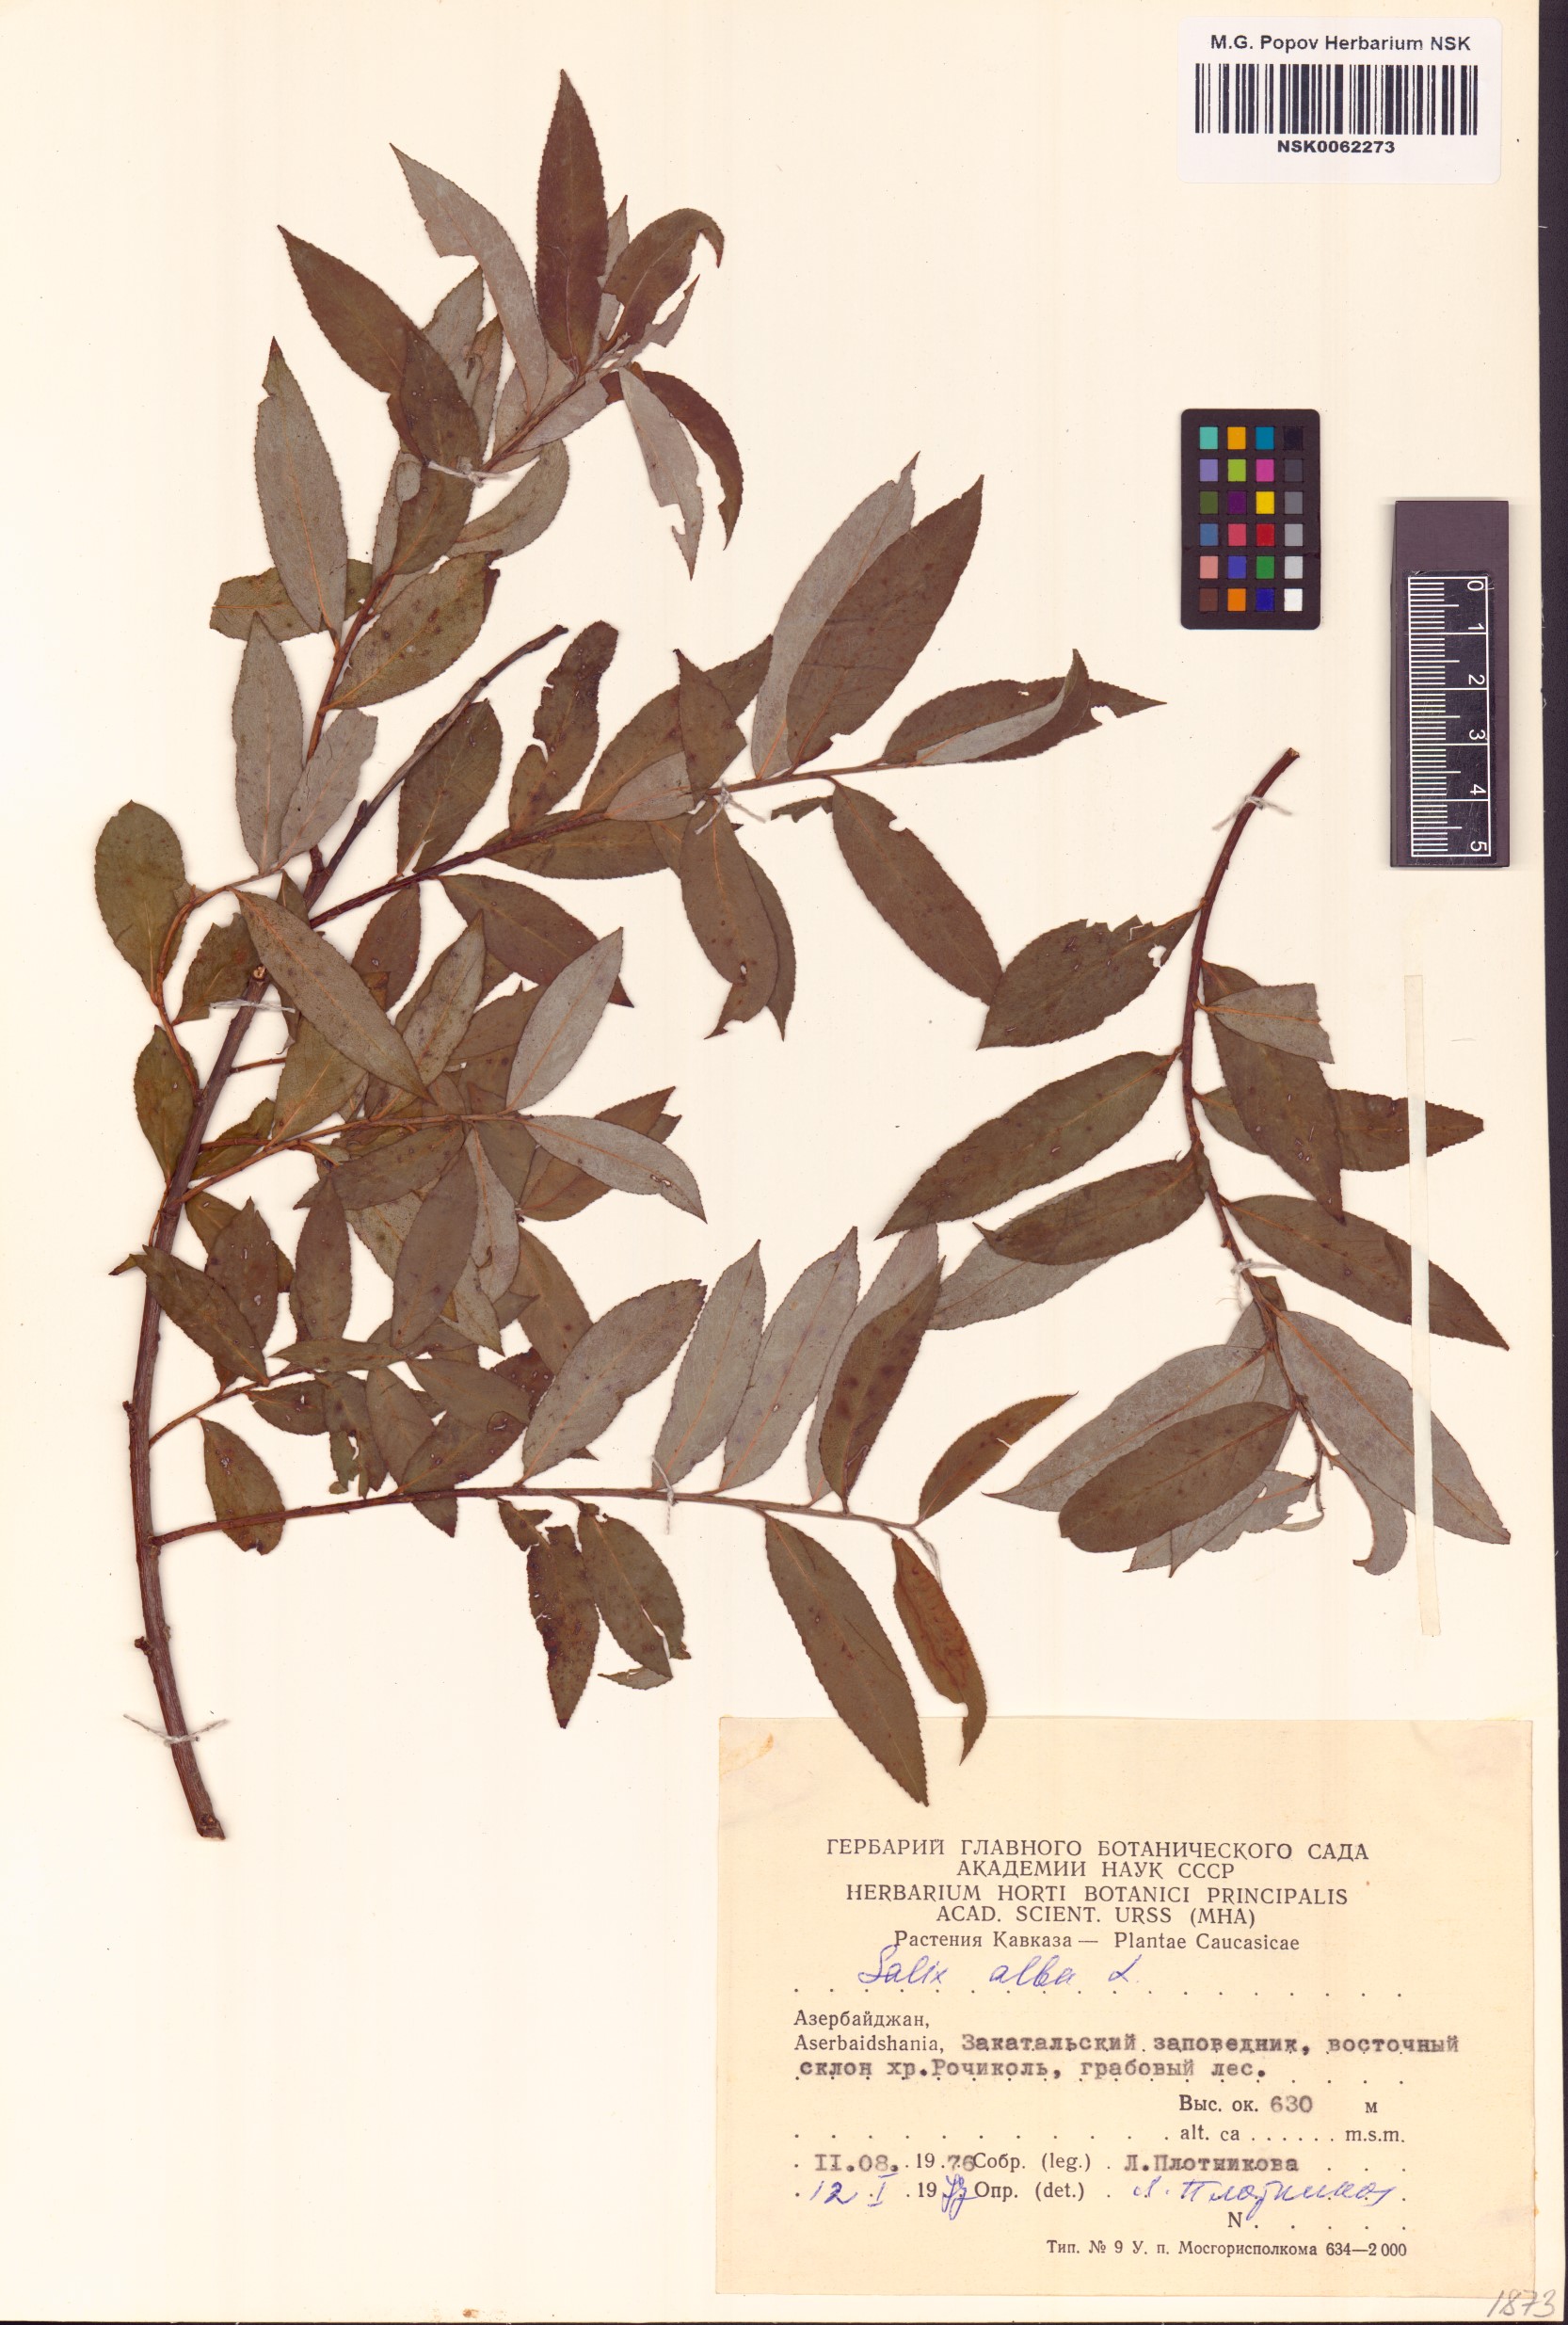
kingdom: Plantae
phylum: Tracheophyta
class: Magnoliopsida
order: Malpighiales
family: Salicaceae
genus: Salix
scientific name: Salix alba
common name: White willow
